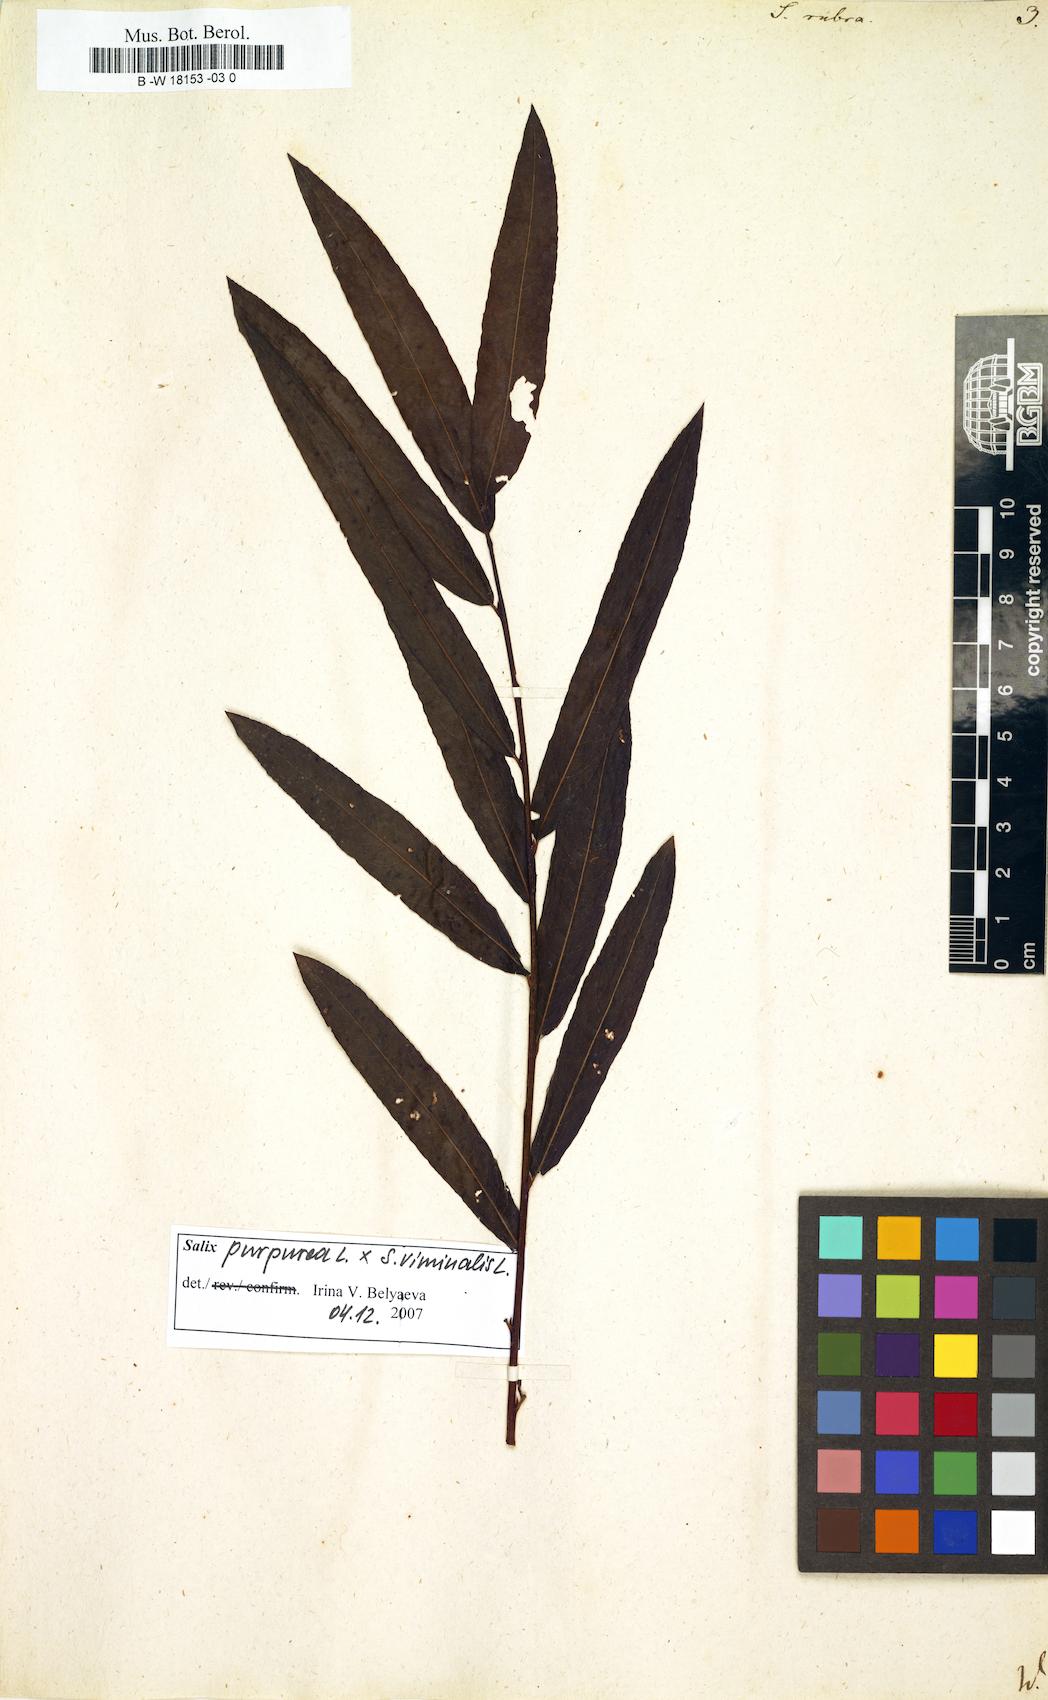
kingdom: Plantae
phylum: Tracheophyta
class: Magnoliopsida
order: Malpighiales
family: Salicaceae
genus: Salix
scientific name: Salix rubra
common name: Green-leaf willow
